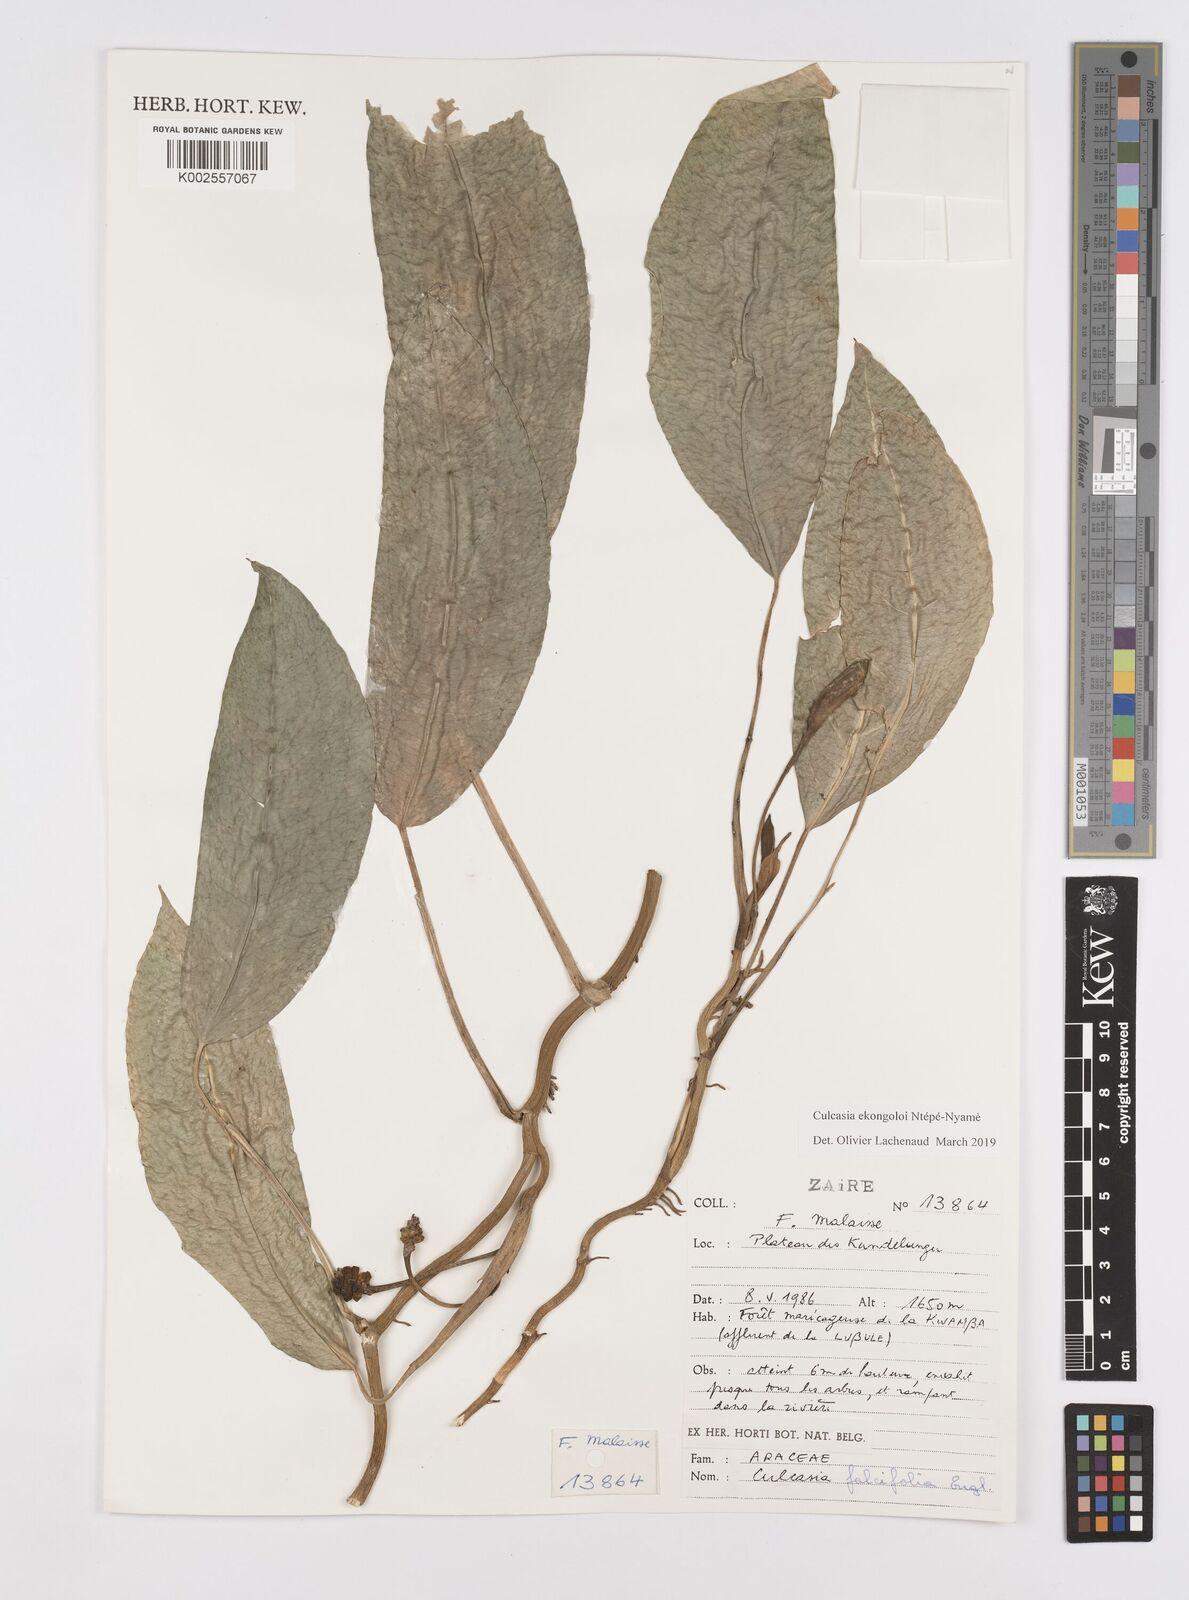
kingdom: Plantae
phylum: Tracheophyta
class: Liliopsida
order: Alismatales
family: Araceae
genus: Culcasia
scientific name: Culcasia ekongoloi
